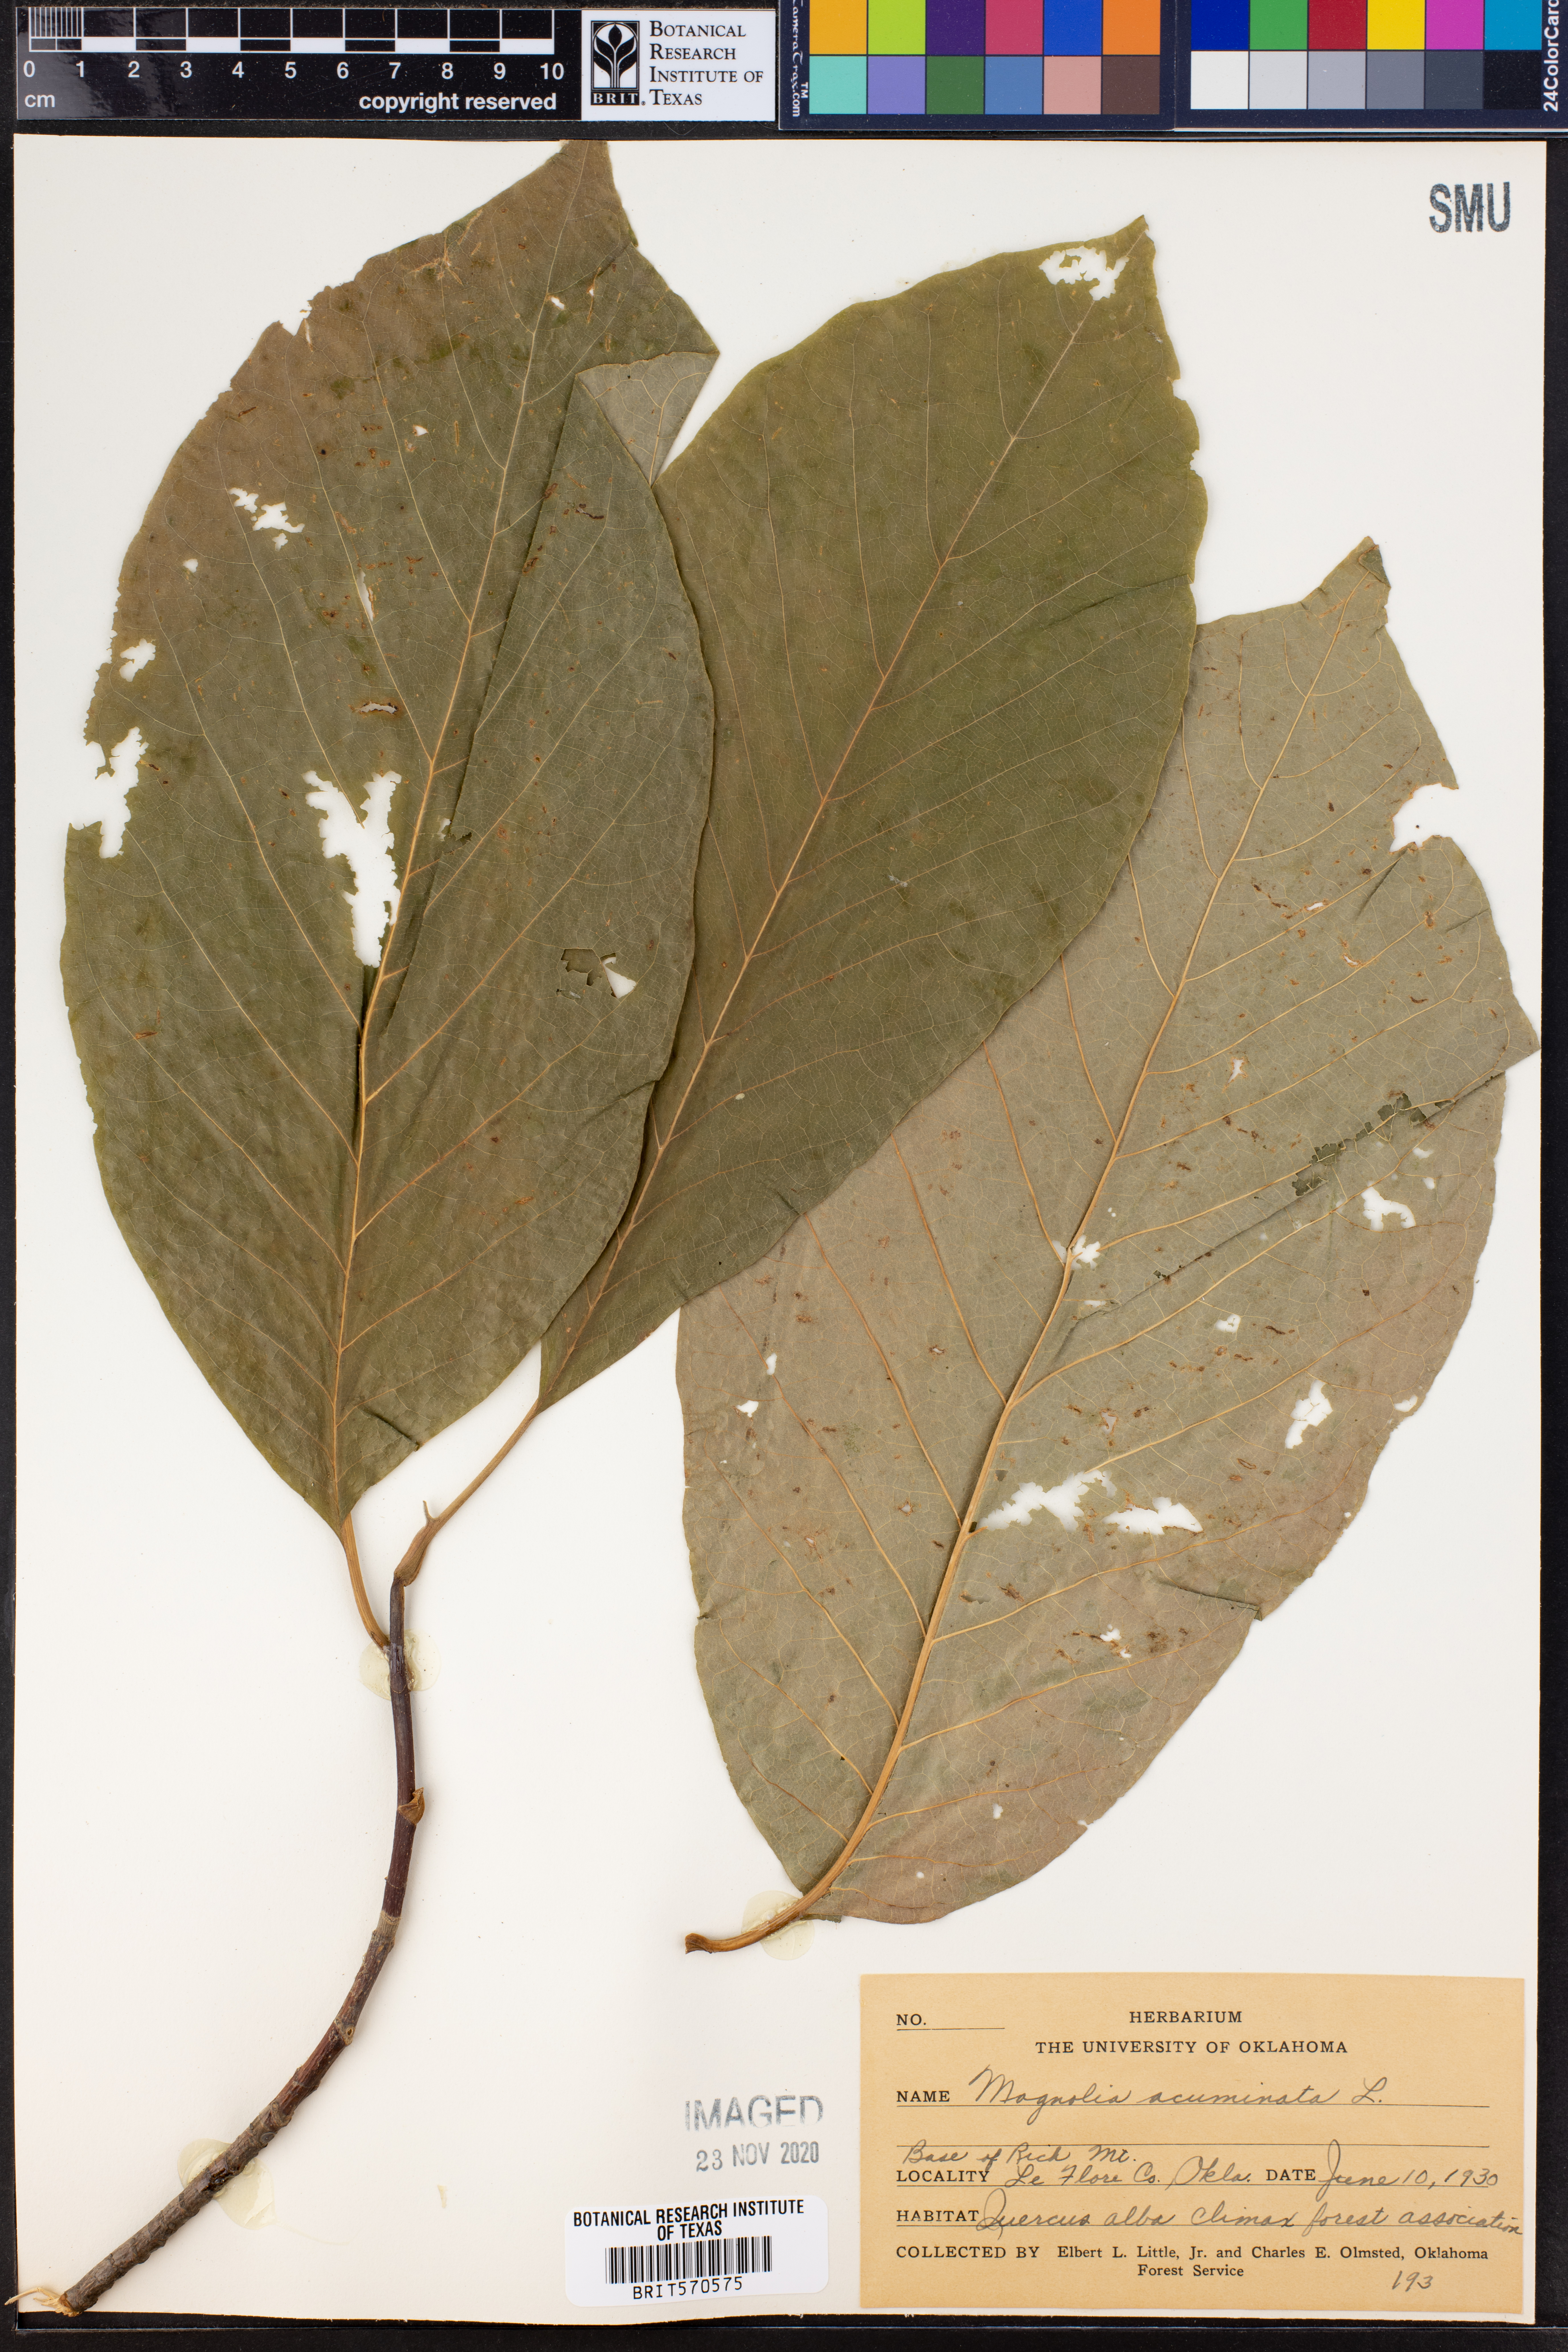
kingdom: Plantae
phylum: Tracheophyta
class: Magnoliopsida
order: Magnoliales
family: Magnoliaceae
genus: Magnolia
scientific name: Magnolia acuminata
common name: Cucumber magnolia
